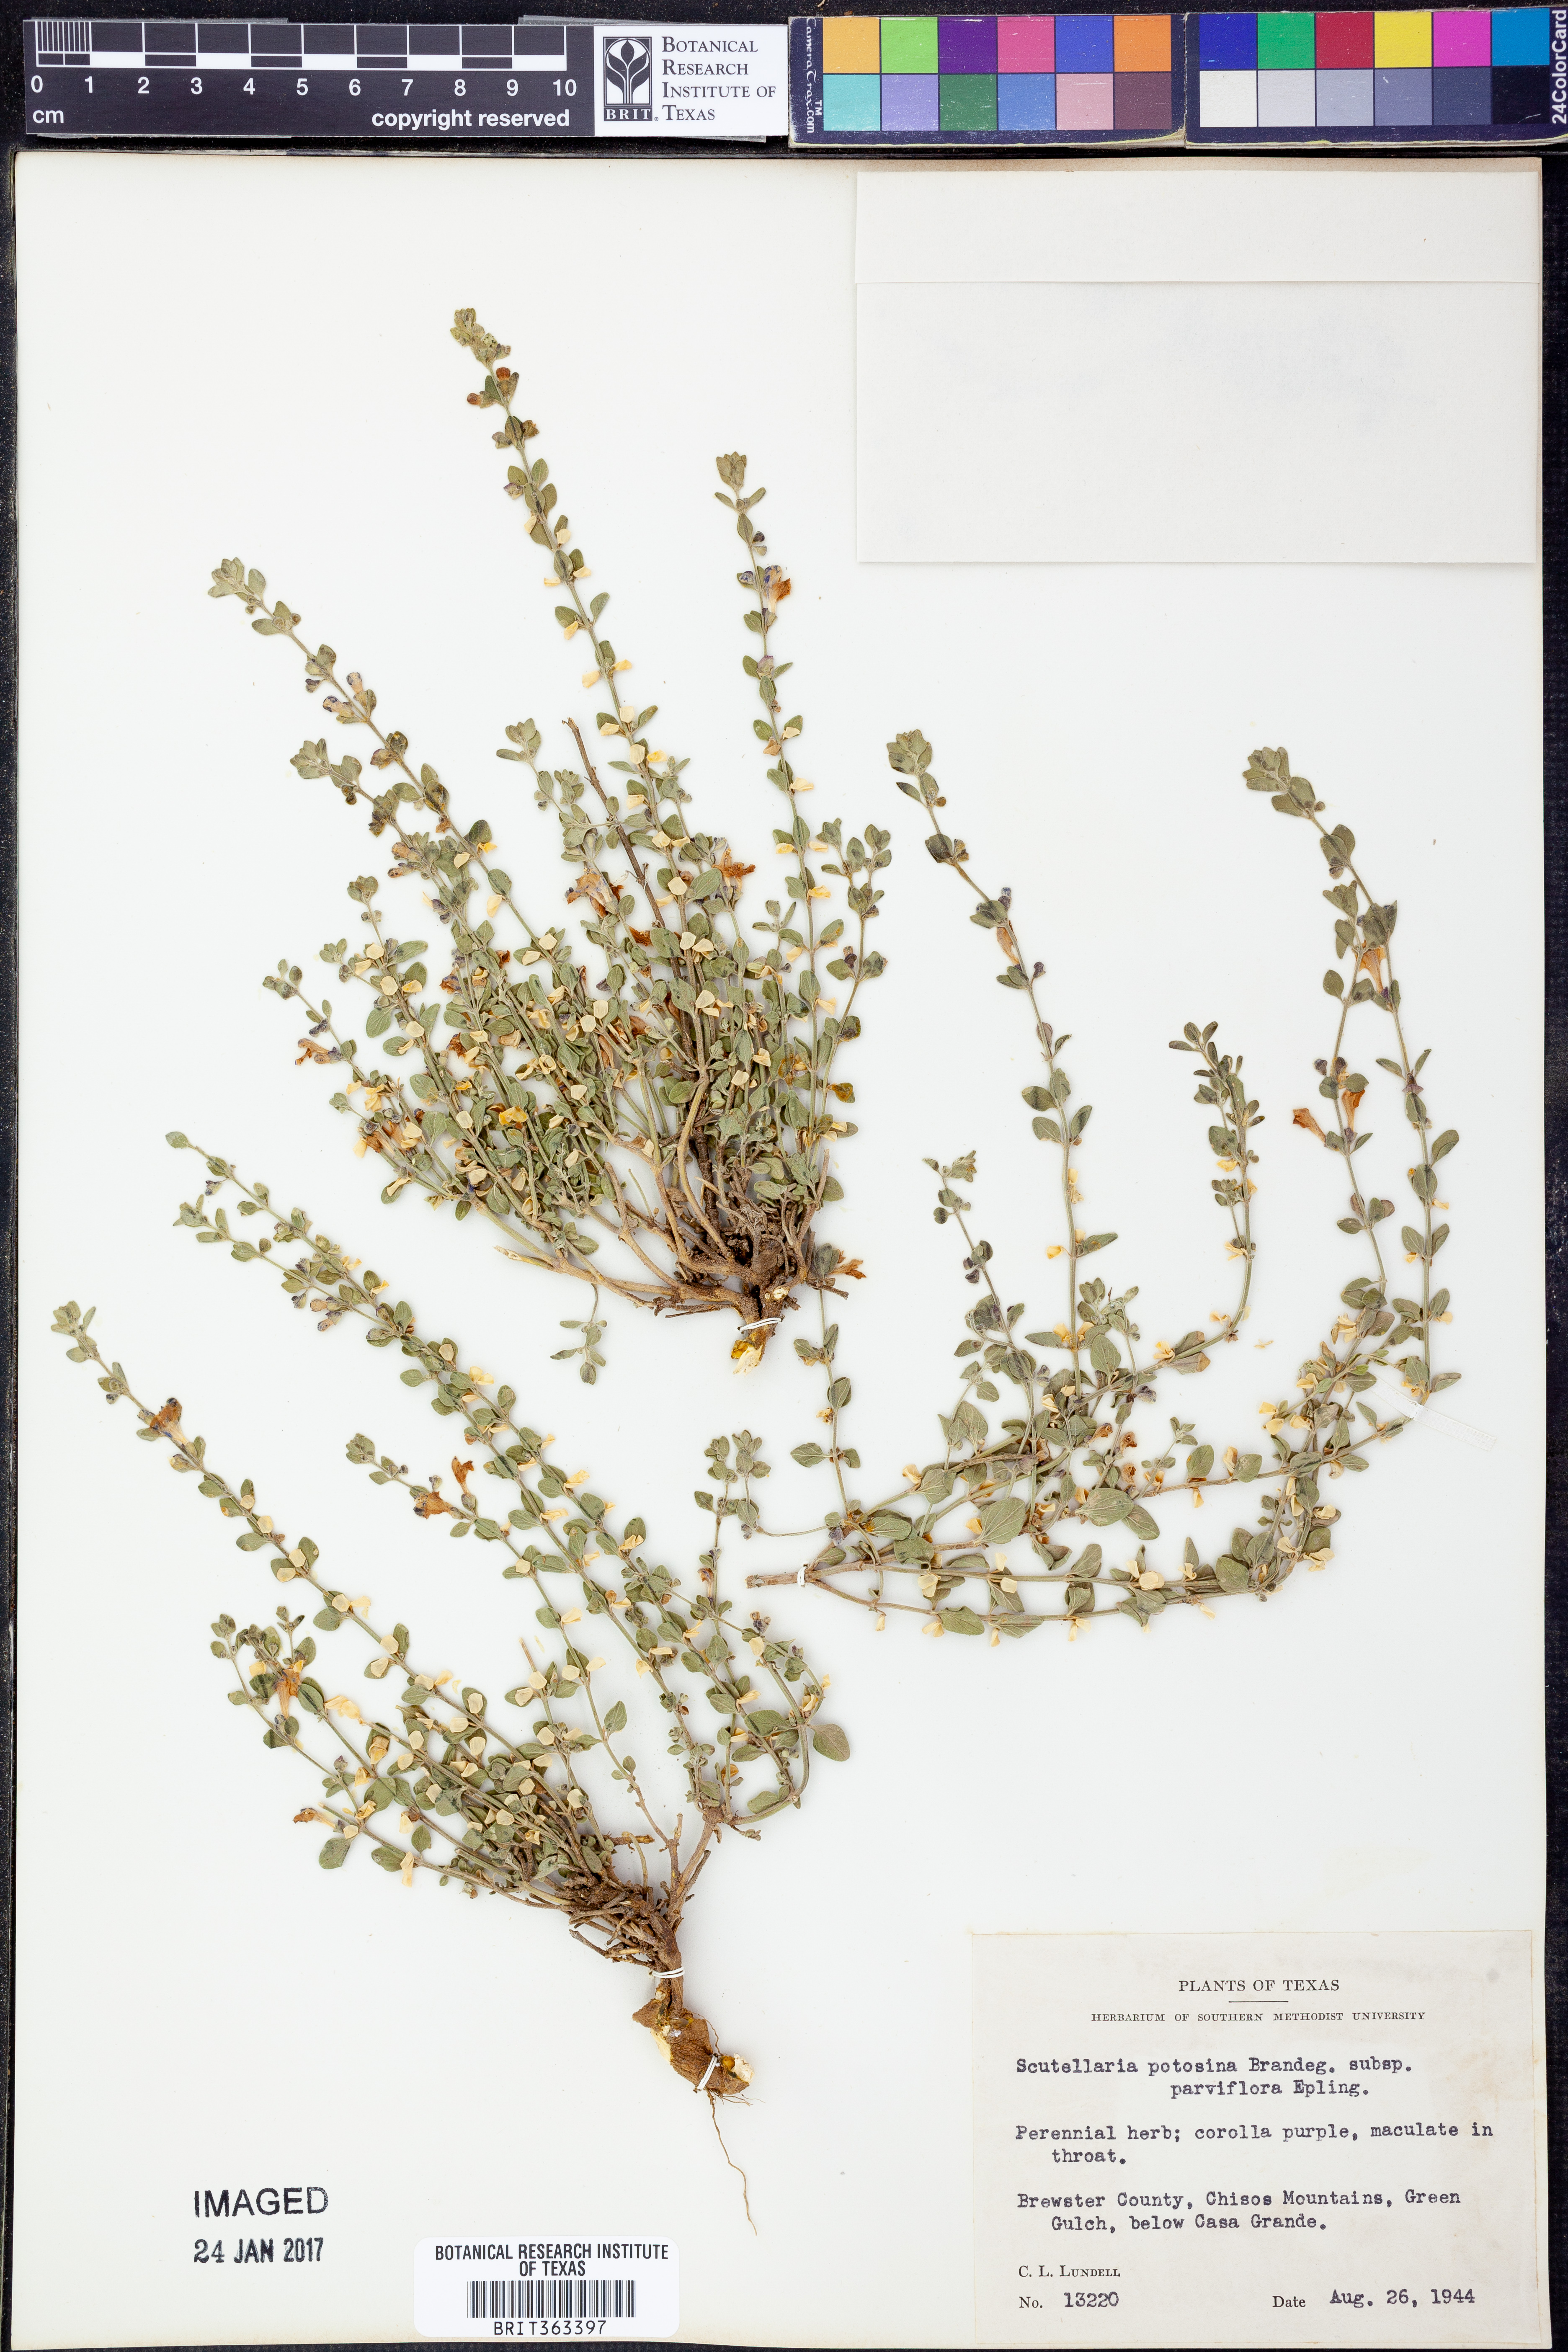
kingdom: Plantae
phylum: Tracheophyta
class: Magnoliopsida
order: Lamiales
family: Lamiaceae
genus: Scutellaria
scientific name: Scutellaria potosina
